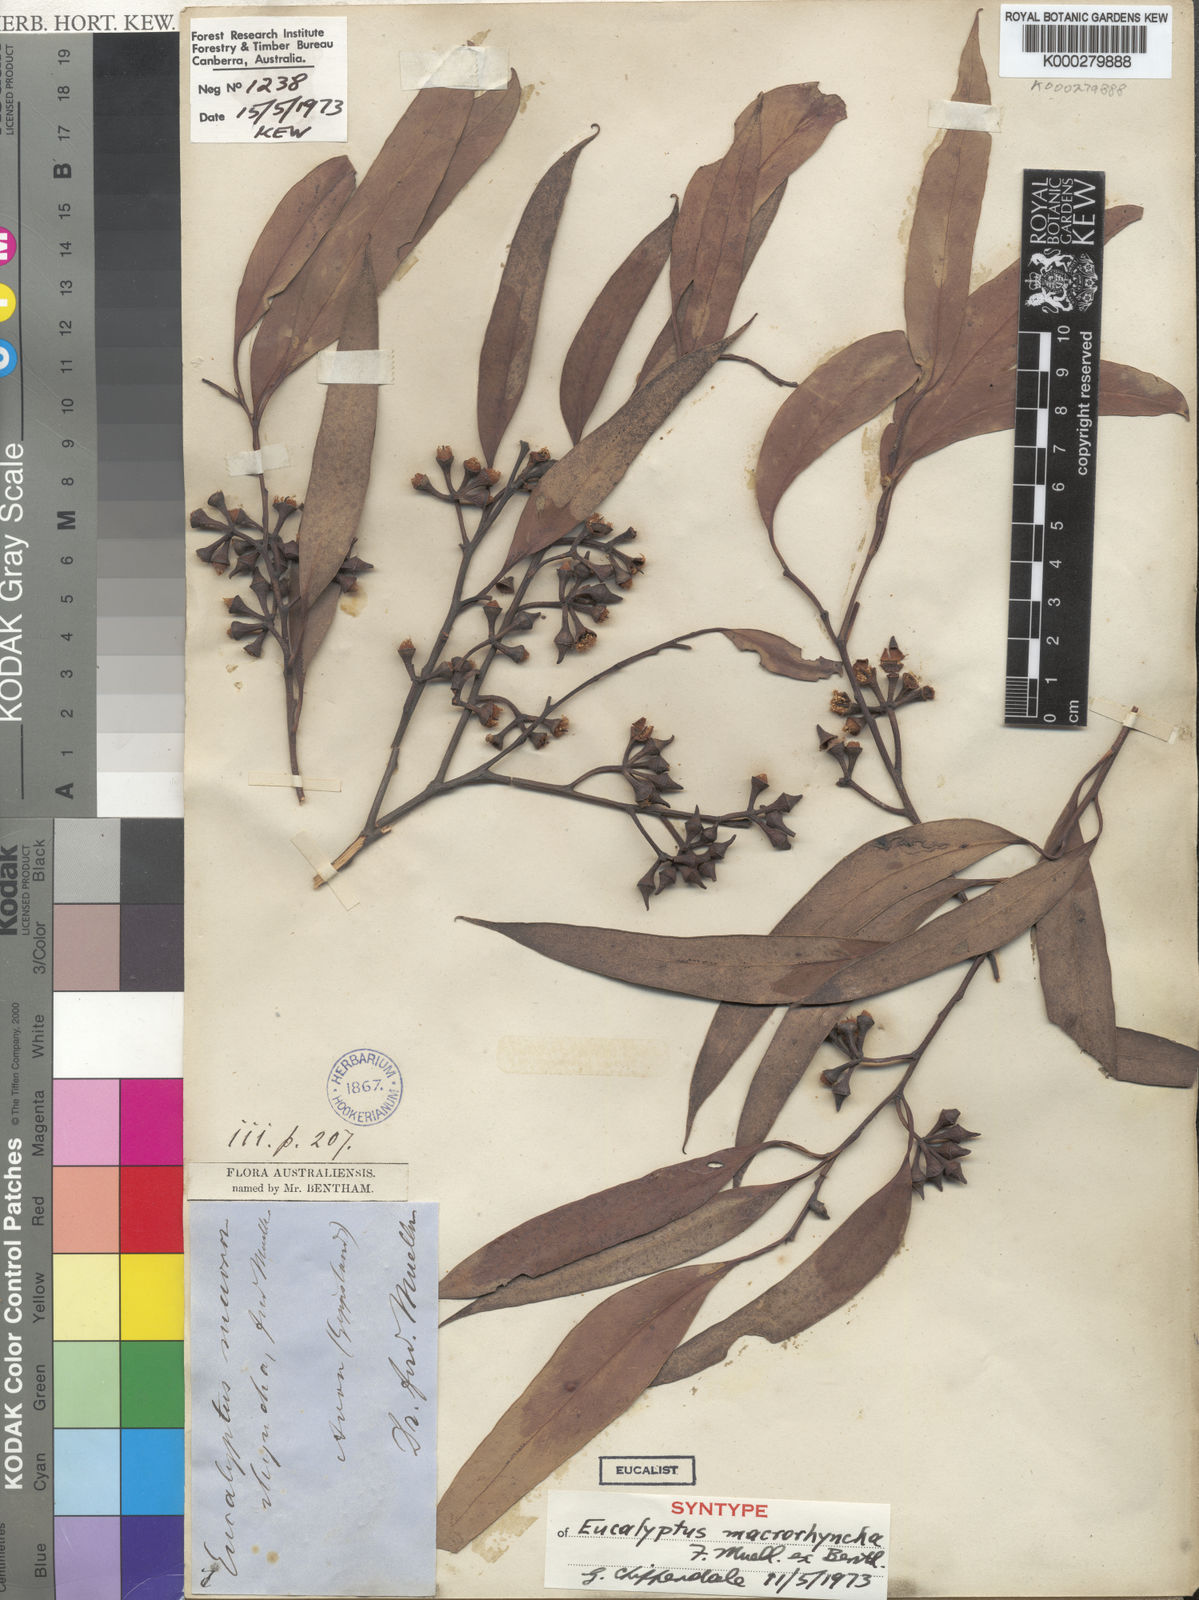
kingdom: Plantae
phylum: Tracheophyta
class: Magnoliopsida
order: Myrtales
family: Myrtaceae
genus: Eucalyptus
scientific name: Eucalyptus macrorhyncha
